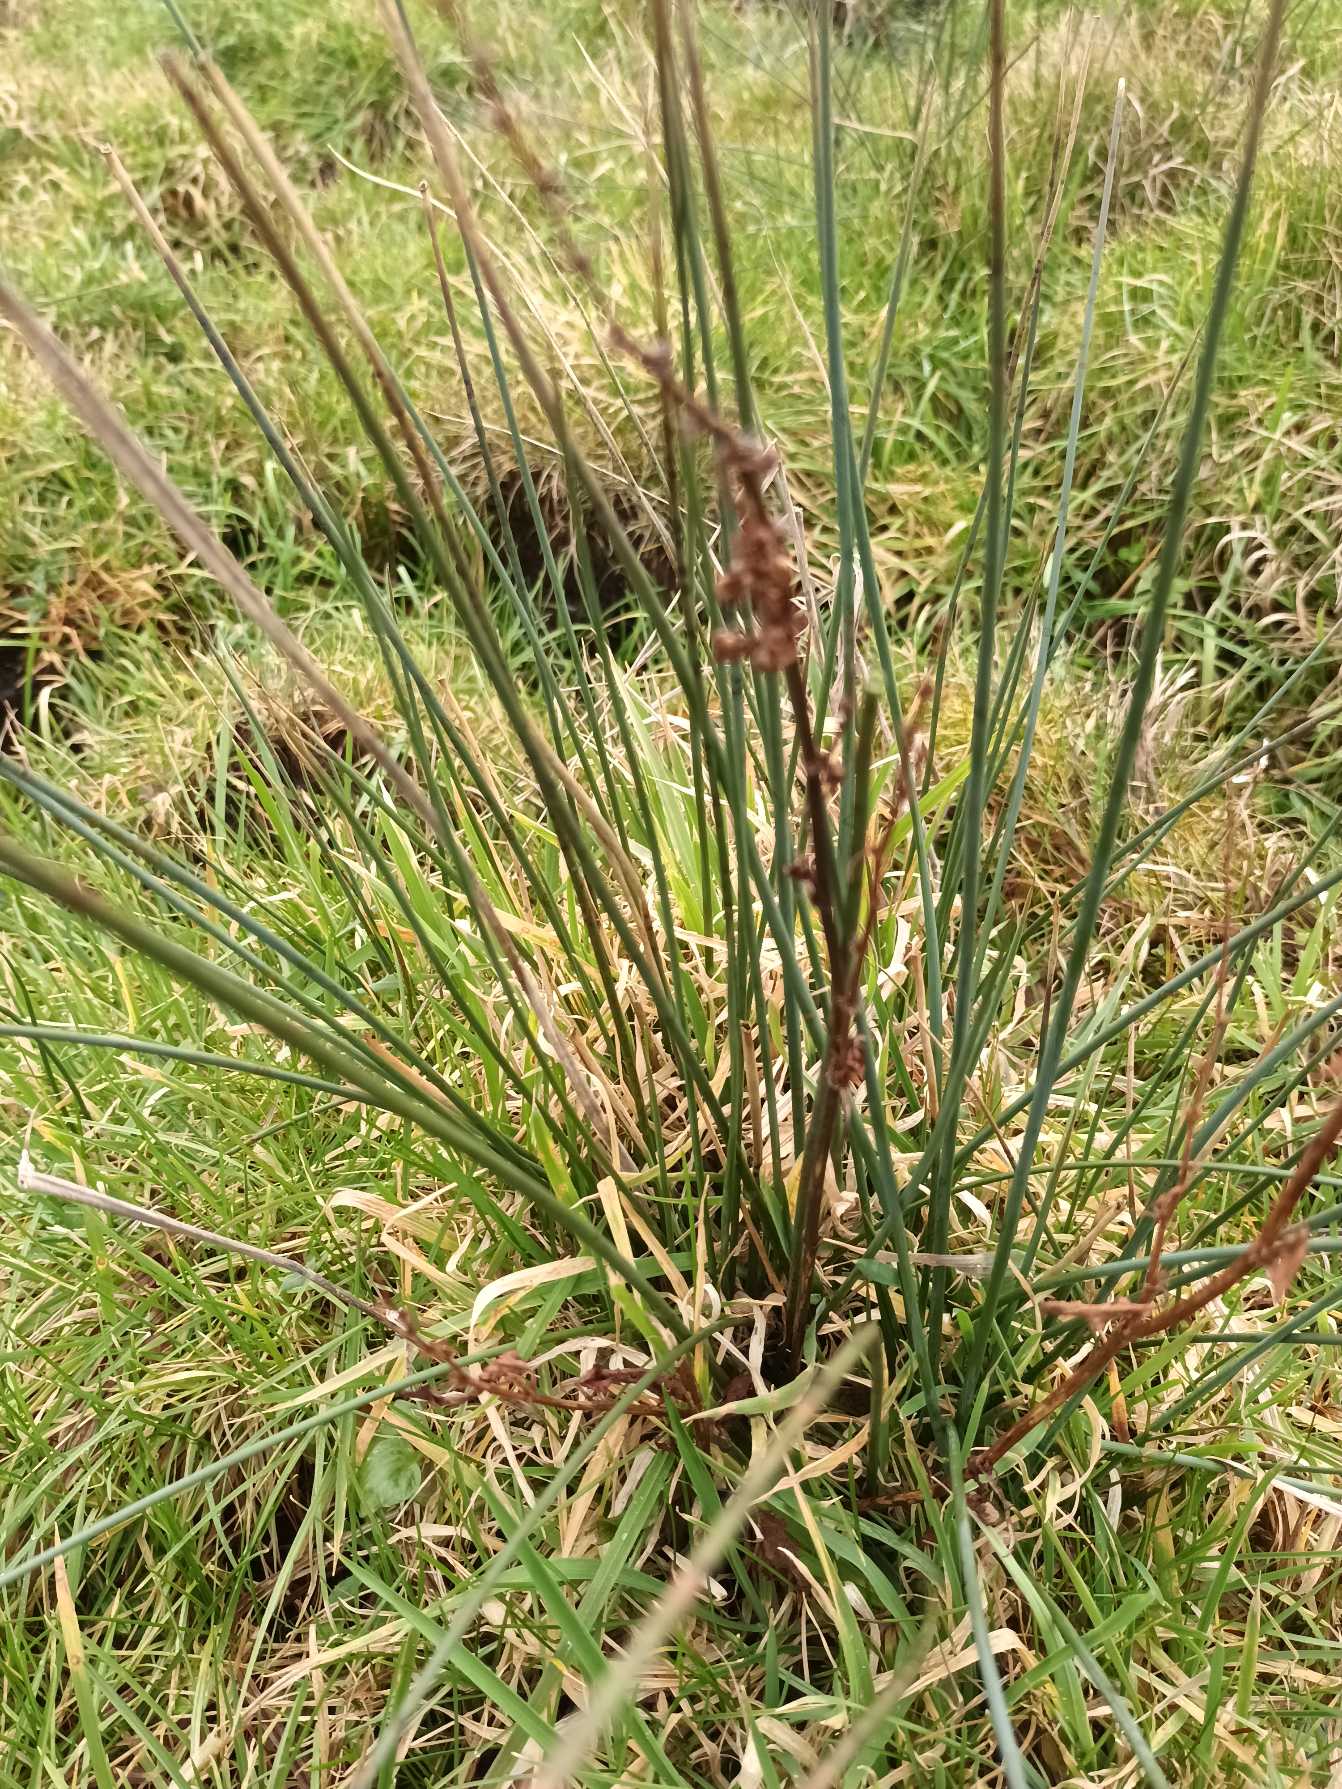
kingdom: Plantae
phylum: Tracheophyta
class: Liliopsida
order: Poales
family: Juncaceae
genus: Juncus
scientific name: Juncus inflexus
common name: Blågrå siv
